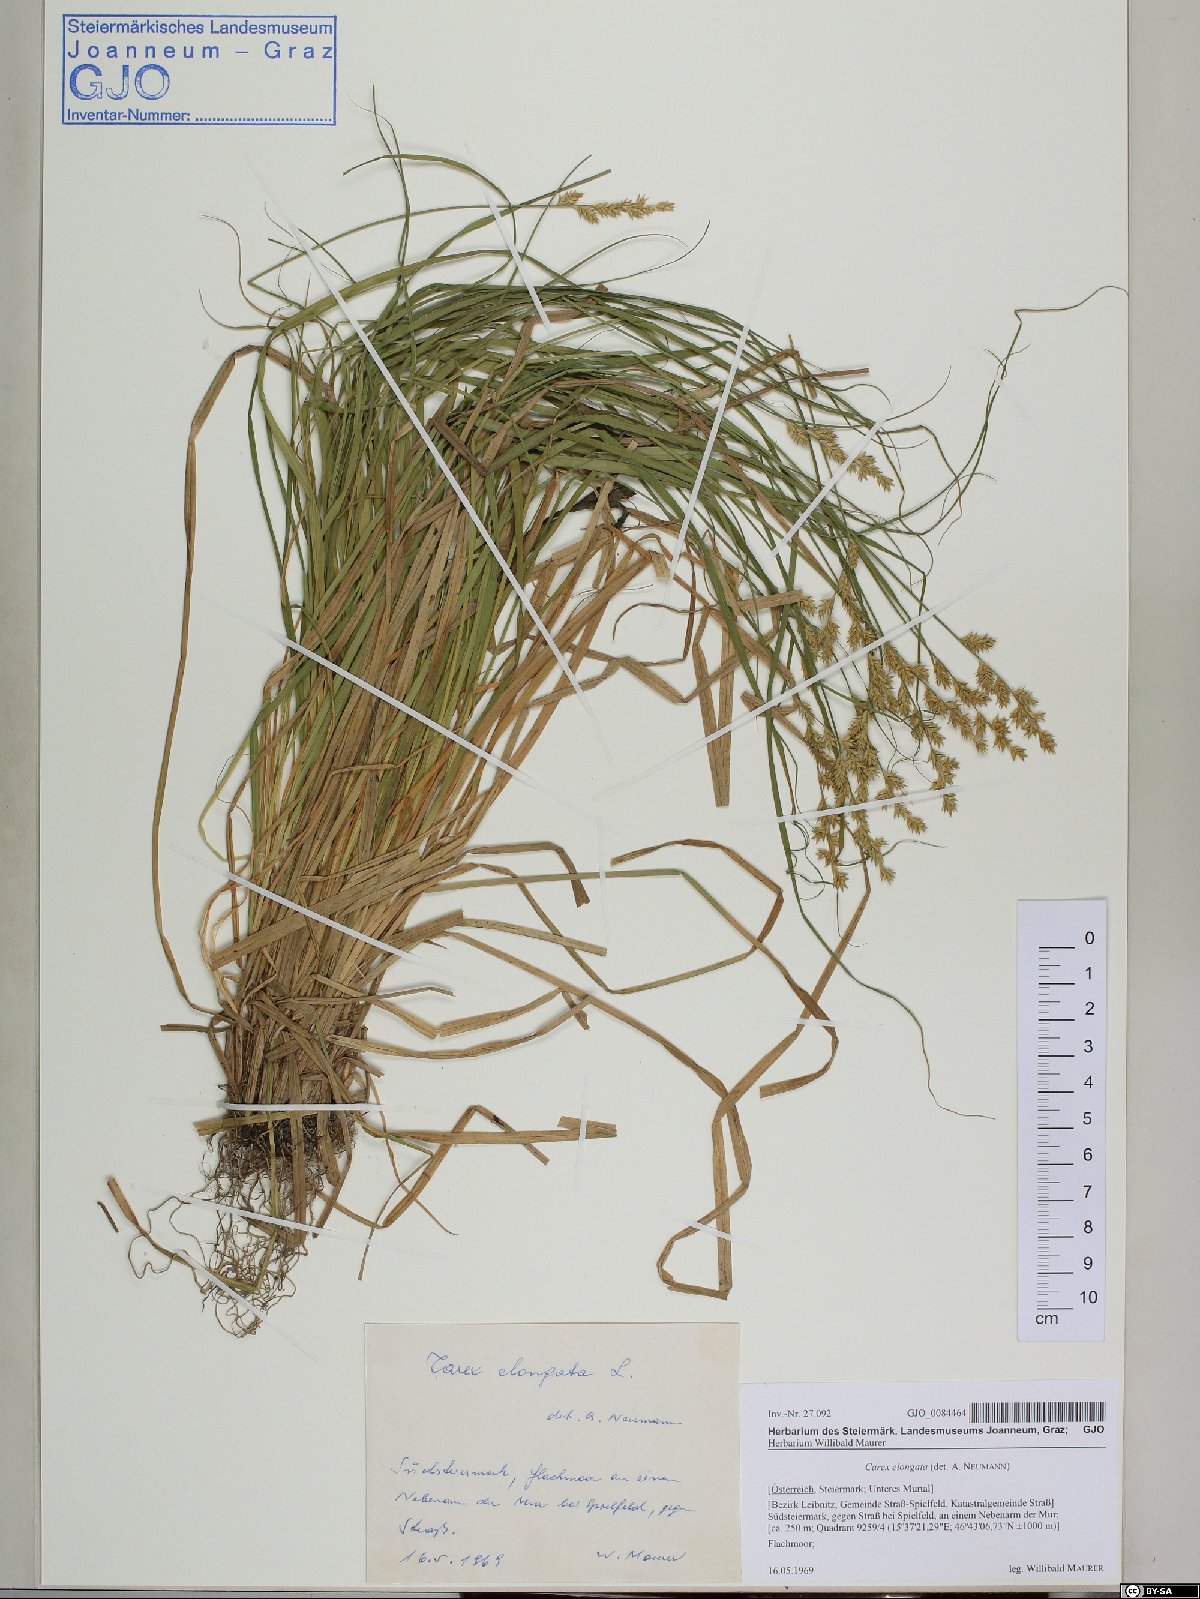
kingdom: Plantae
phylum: Tracheophyta
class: Liliopsida
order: Poales
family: Cyperaceae
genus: Carex
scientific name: Carex elongata
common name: Elongated sedge
